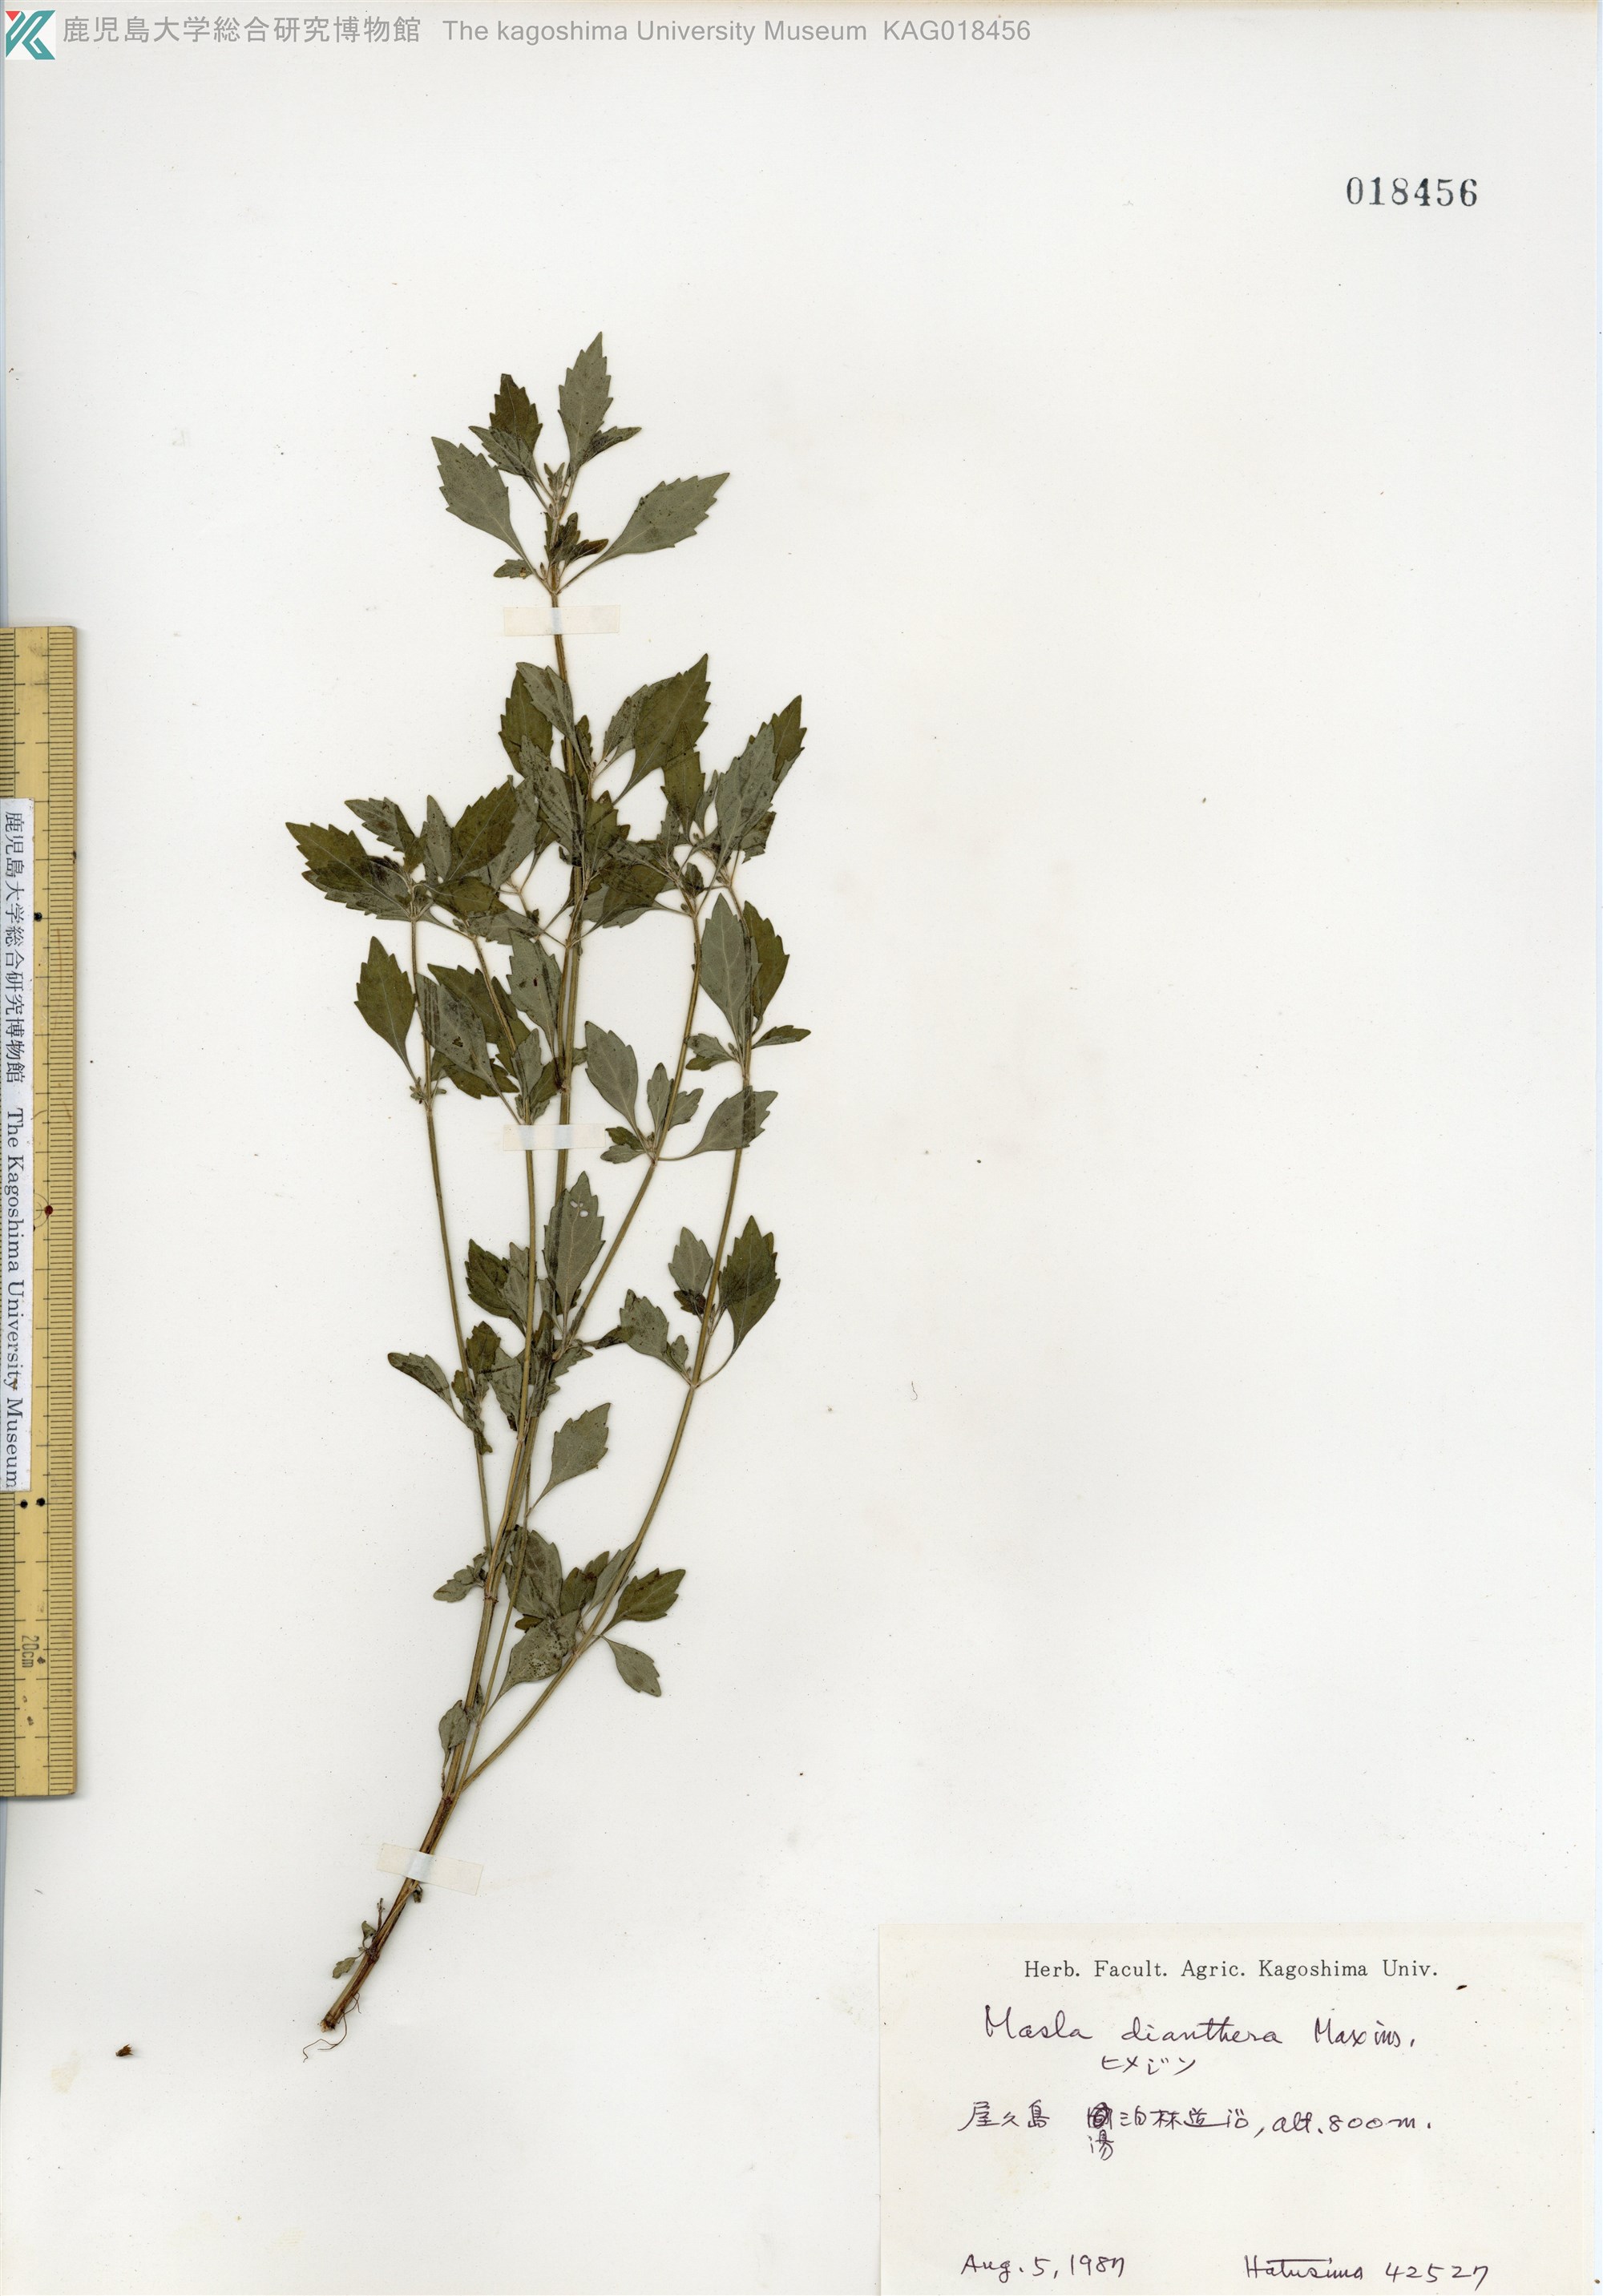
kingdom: Plantae
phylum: Tracheophyta
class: Magnoliopsida
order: Lamiales
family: Lamiaceae
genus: Mosla
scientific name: Mosla dianthera
